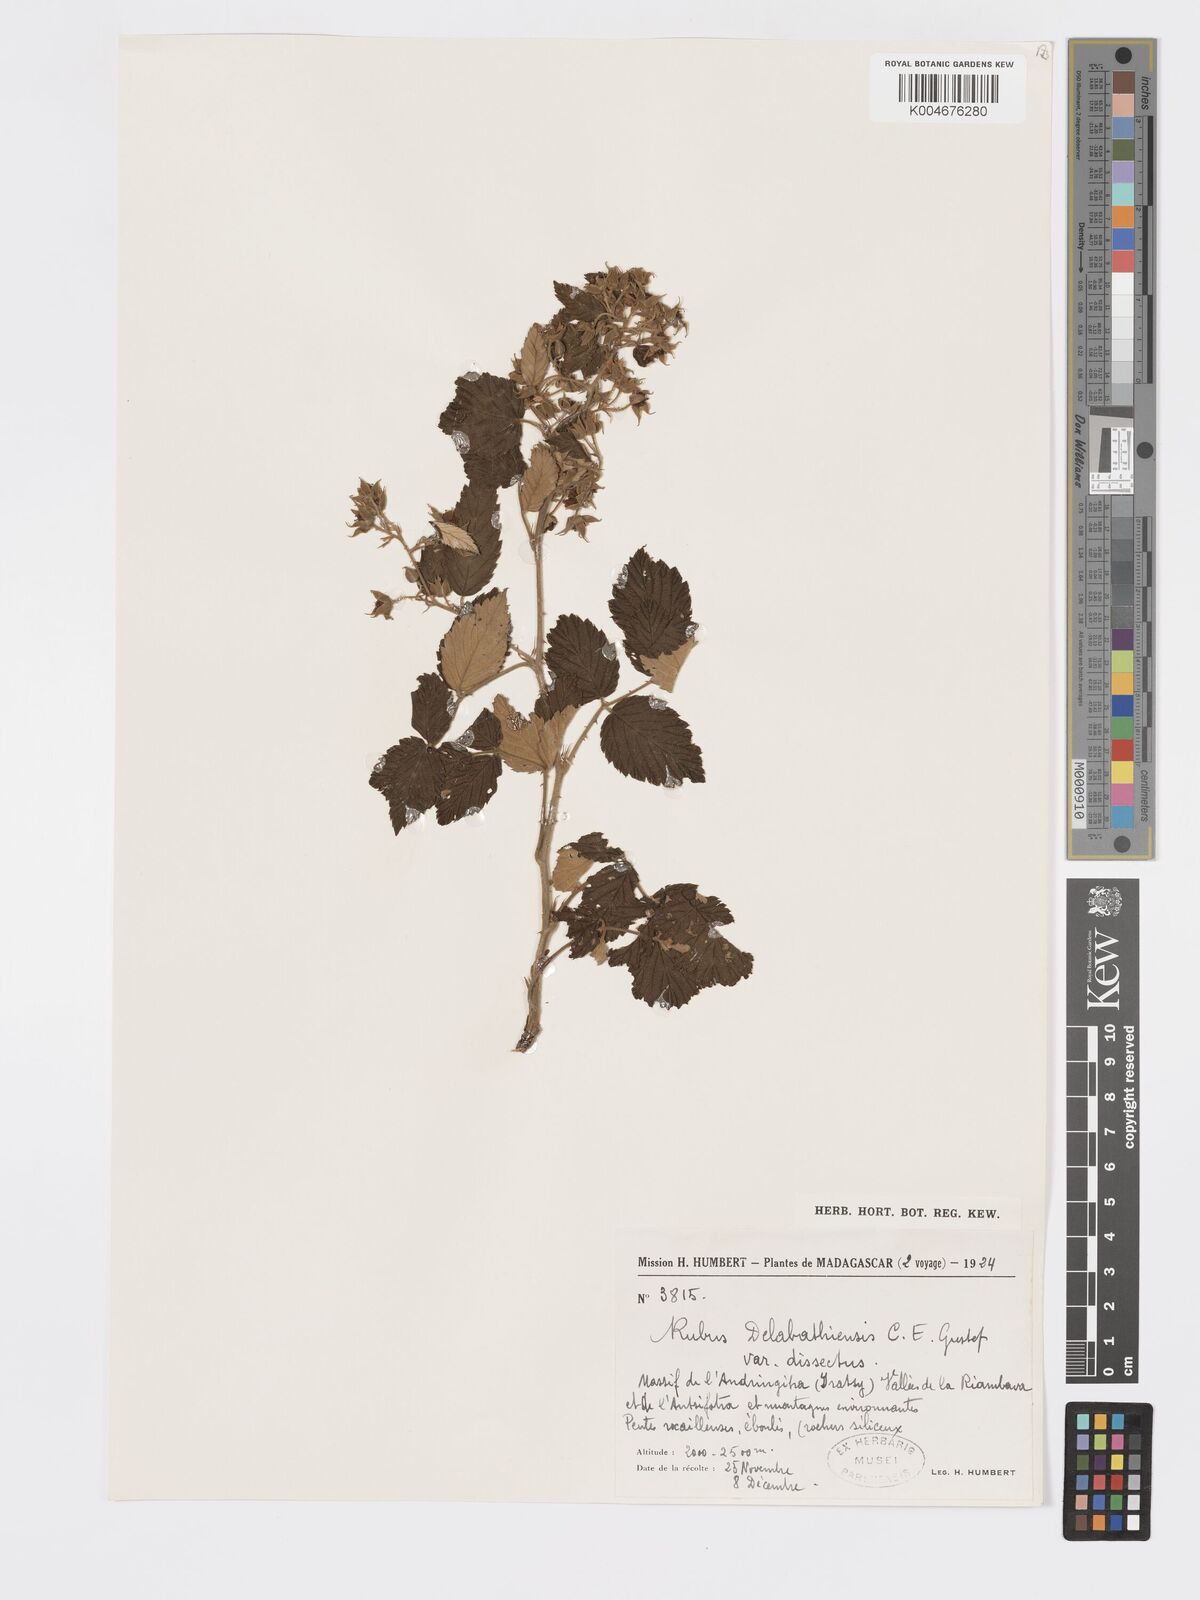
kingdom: Plantae
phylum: Tracheophyta
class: Magnoliopsida
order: Rosales
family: Rosaceae
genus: Rubus
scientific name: Rubus delabathiensis
